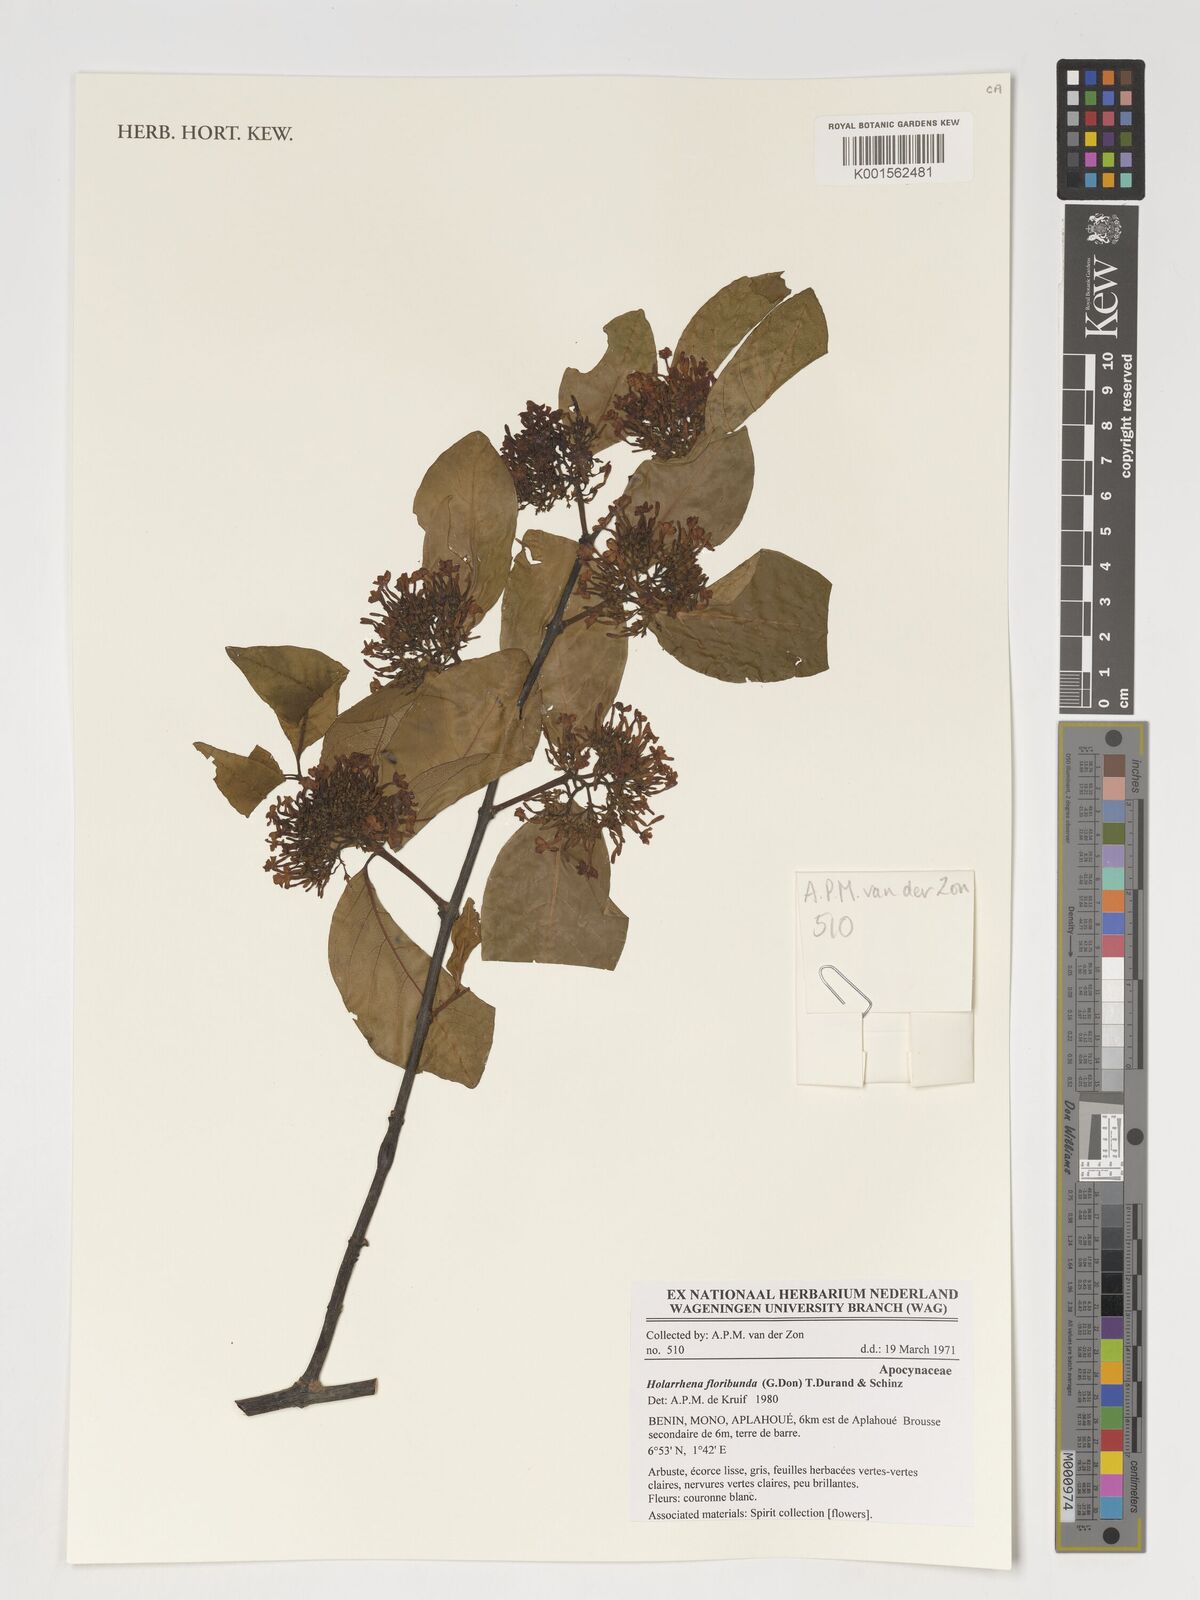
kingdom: Plantae
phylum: Tracheophyta
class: Magnoliopsida
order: Gentianales
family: Apocynaceae
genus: Holarrhena
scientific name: Holarrhena floribunda
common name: Kurchibark
